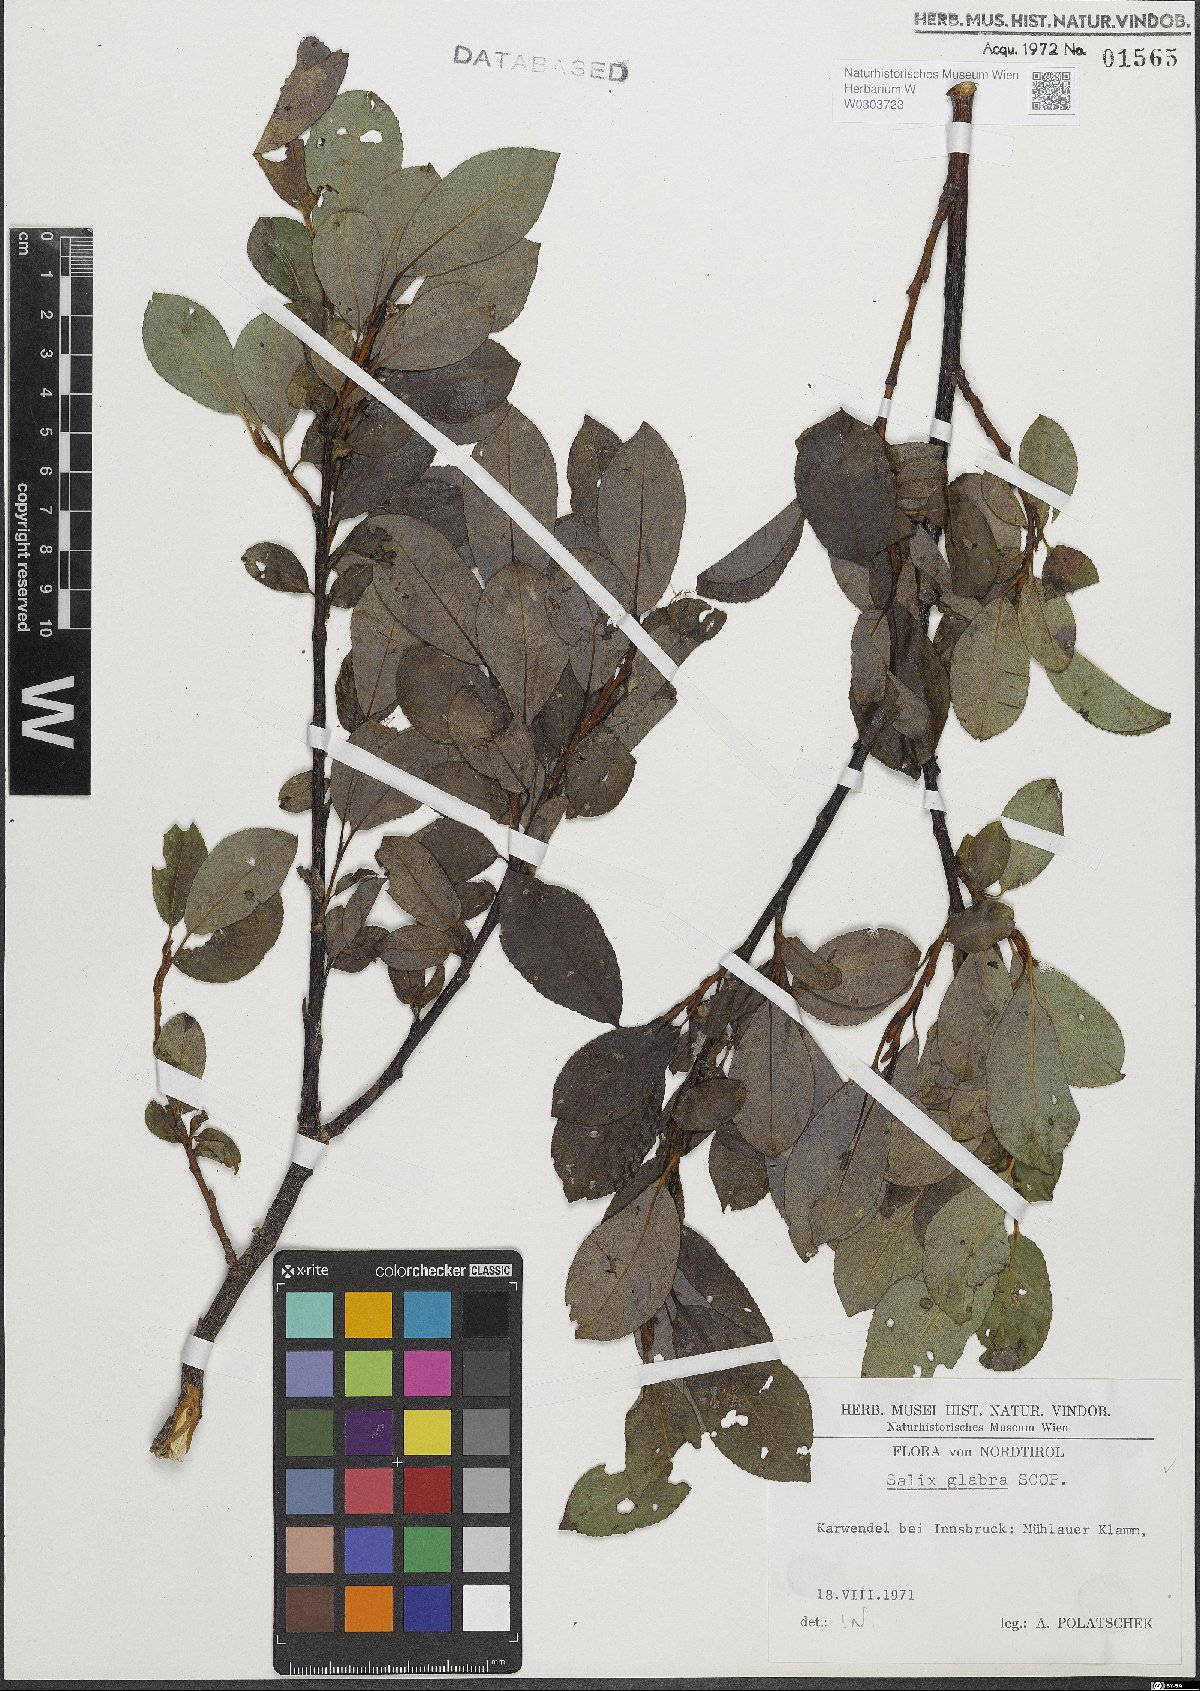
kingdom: Plantae
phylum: Tracheophyta
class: Magnoliopsida
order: Malpighiales
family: Salicaceae
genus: Salix
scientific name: Salix glabra
